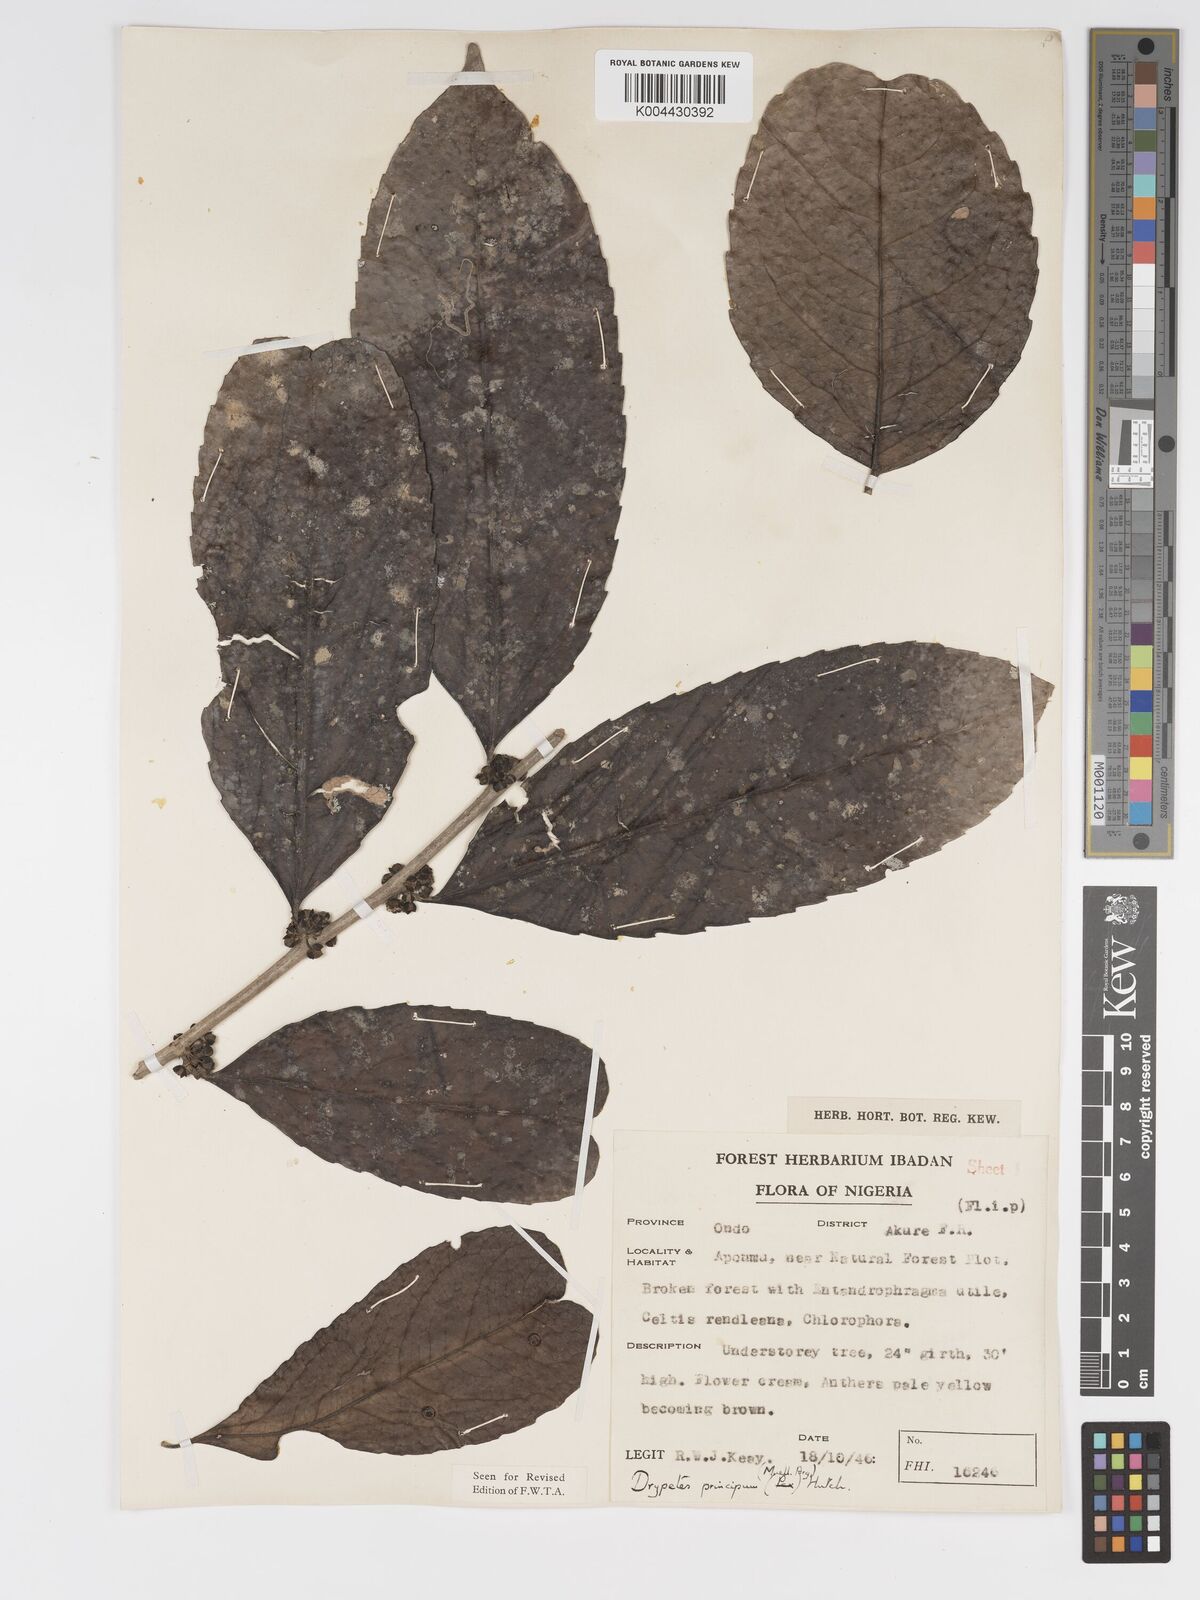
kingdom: Plantae
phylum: Tracheophyta
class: Magnoliopsida
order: Malpighiales
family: Putranjivaceae
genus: Drypetes
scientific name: Drypetes principum
